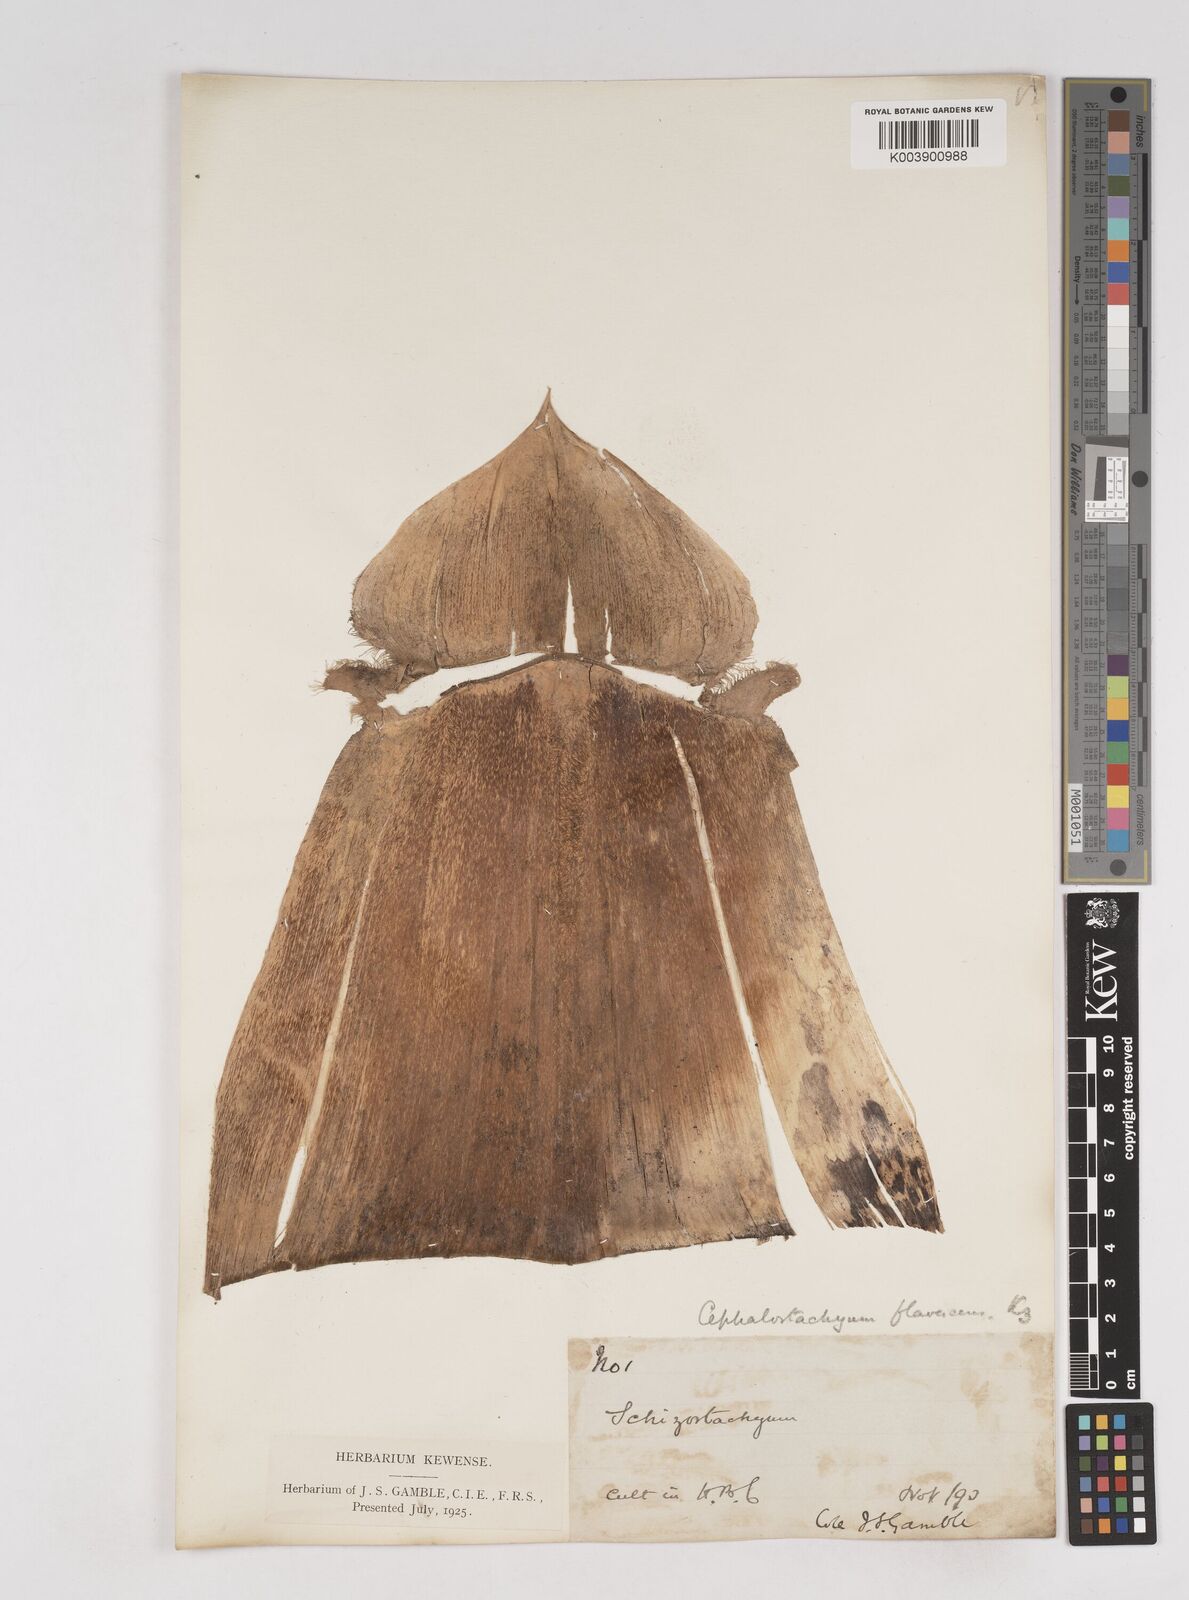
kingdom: Plantae
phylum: Tracheophyta
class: Liliopsida
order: Poales
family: Poaceae
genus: Cephalostachyum
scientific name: Cephalostachyum flavescens
